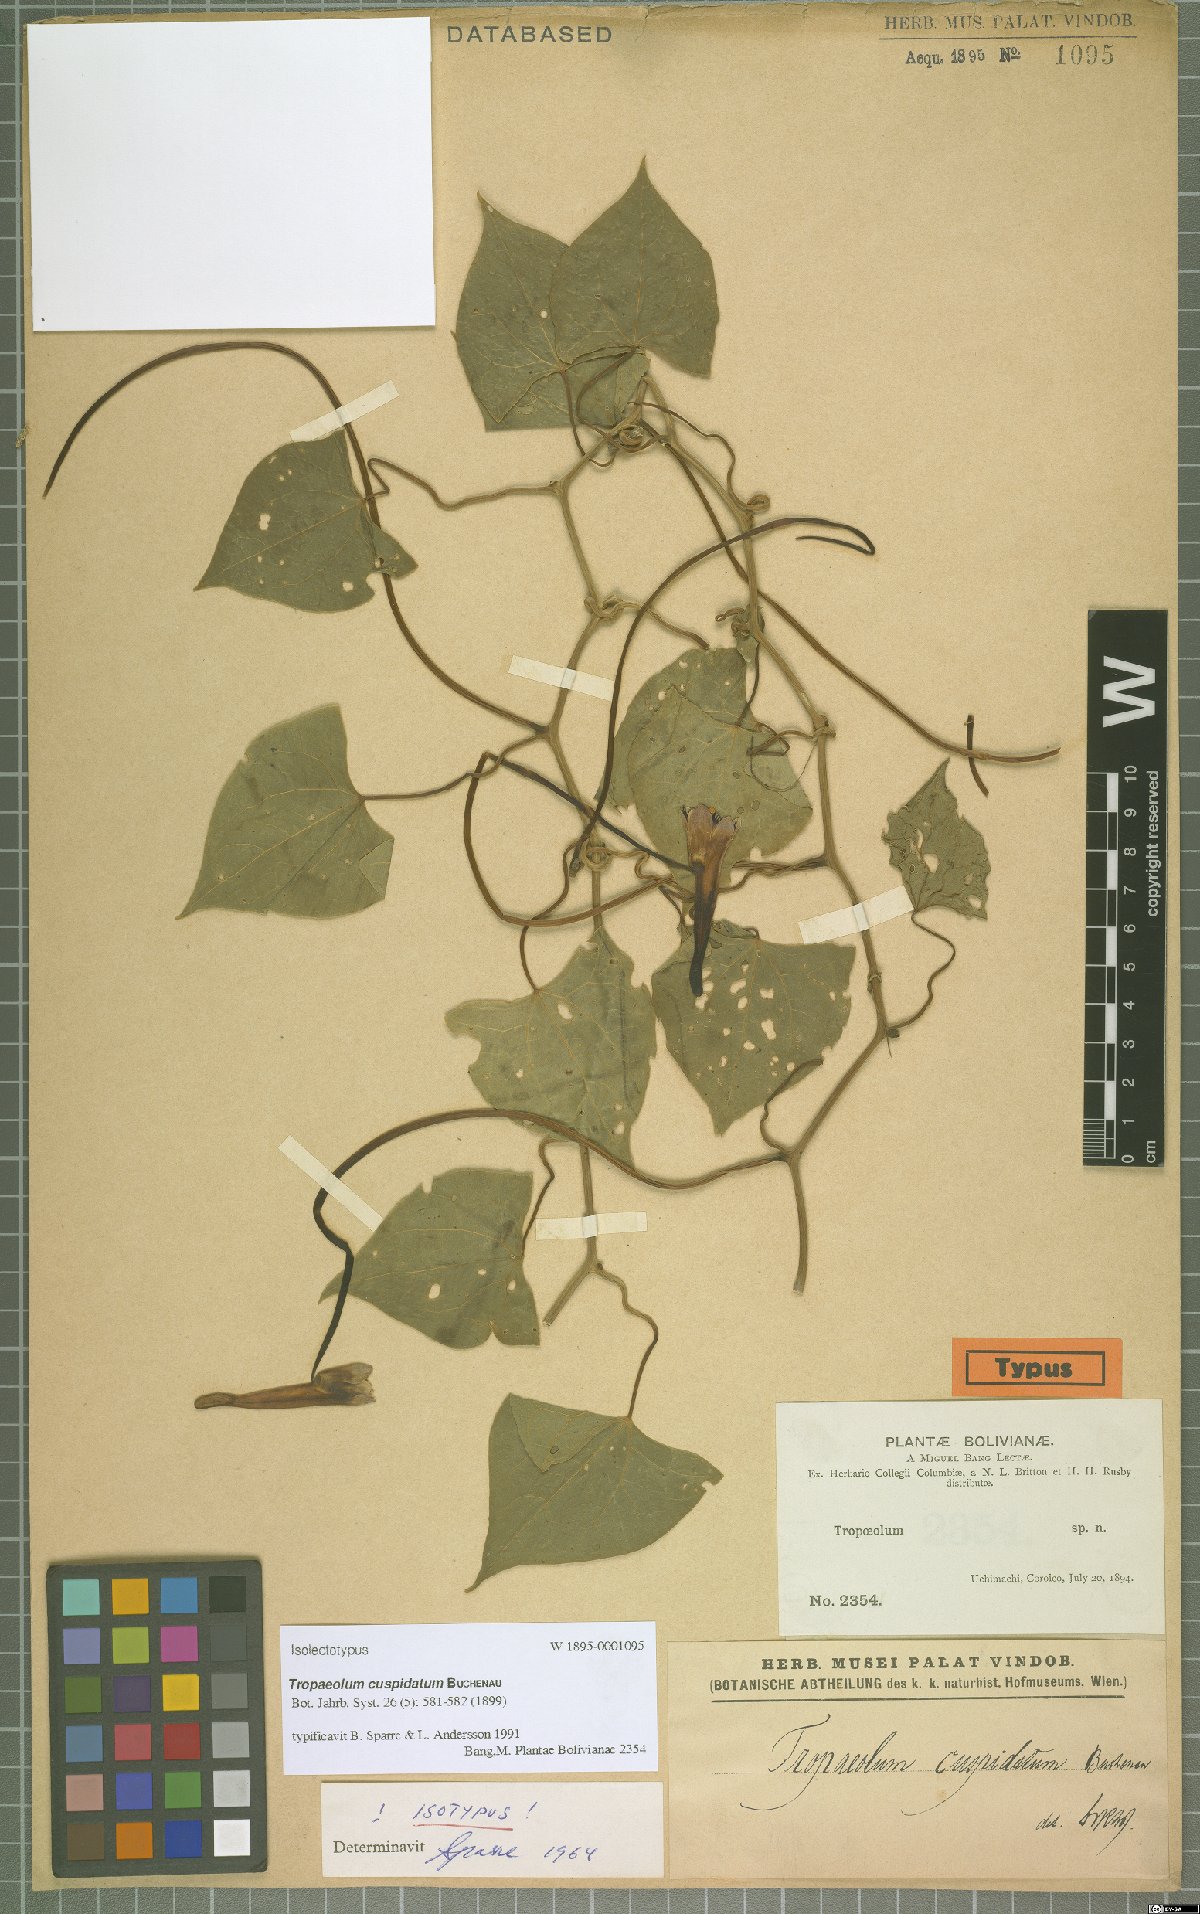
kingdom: Plantae
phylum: Tracheophyta
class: Magnoliopsida
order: Brassicales
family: Tropaeolaceae
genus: Tropaeolum
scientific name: Tropaeolum cuspidatum
